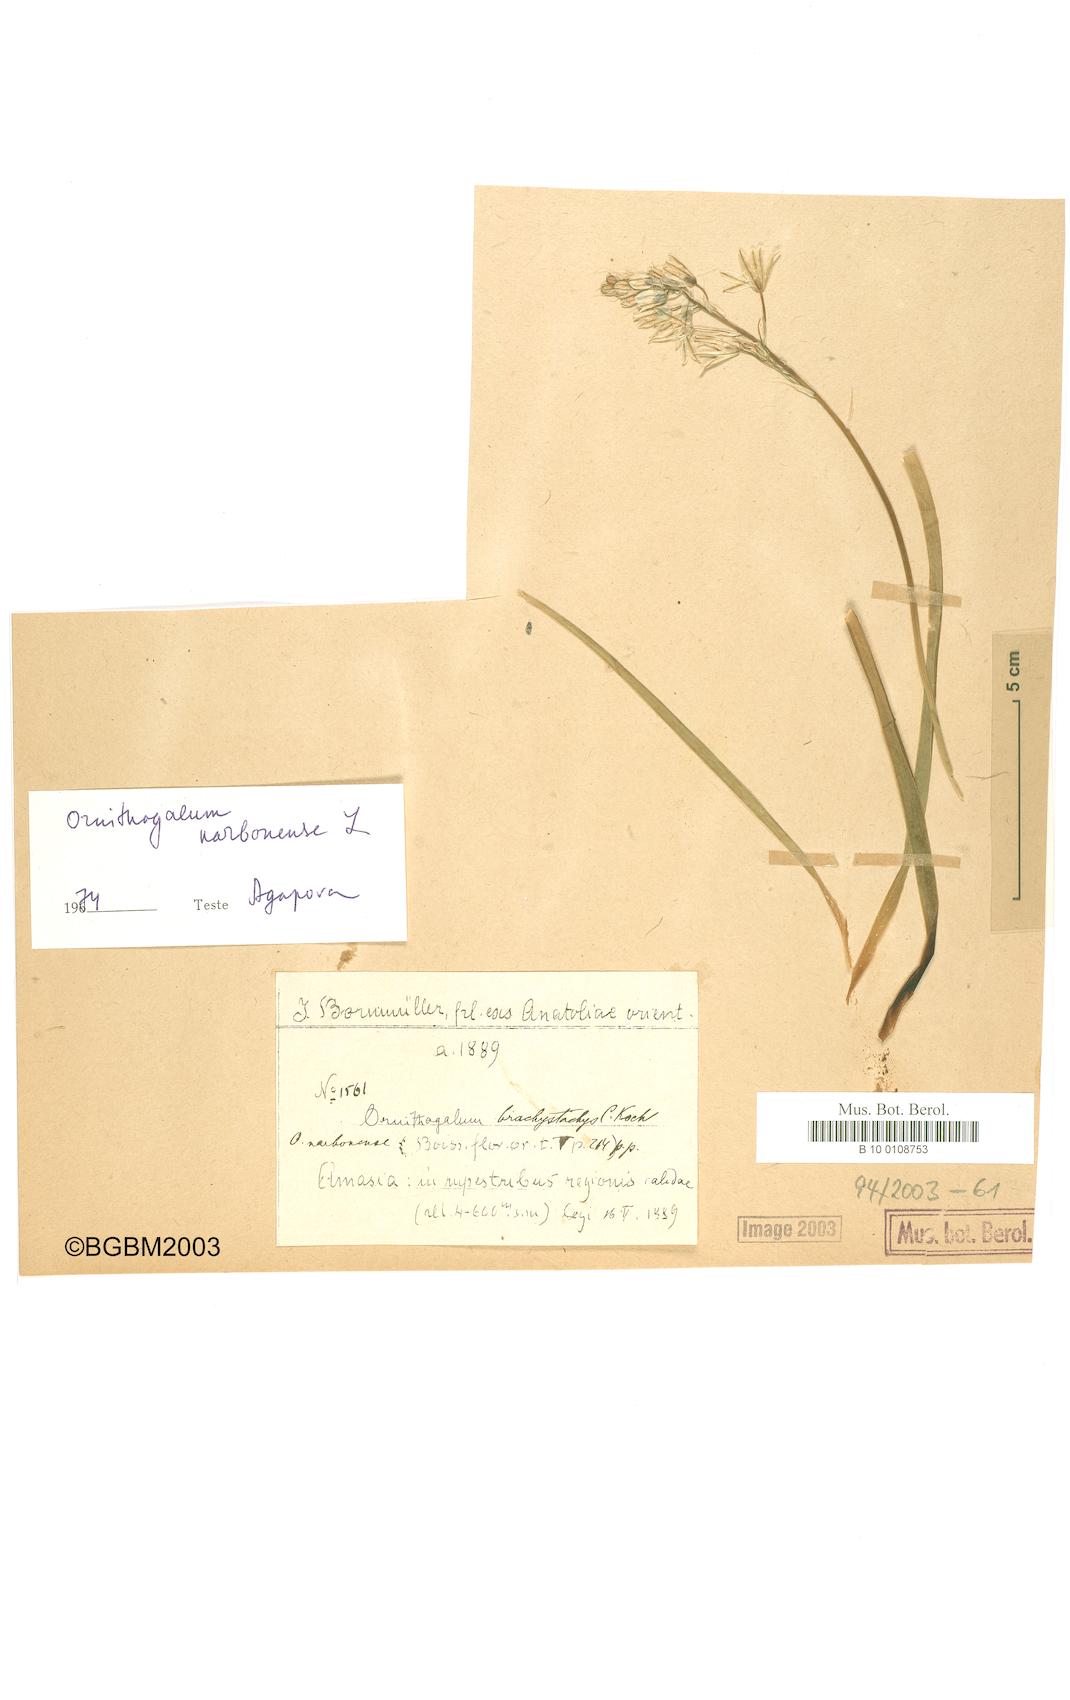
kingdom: Plantae
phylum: Tracheophyta
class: Liliopsida
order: Asparagales
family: Asparagaceae
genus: Ornithogalum
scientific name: Ornithogalum narbonense
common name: Bath-asparagus
